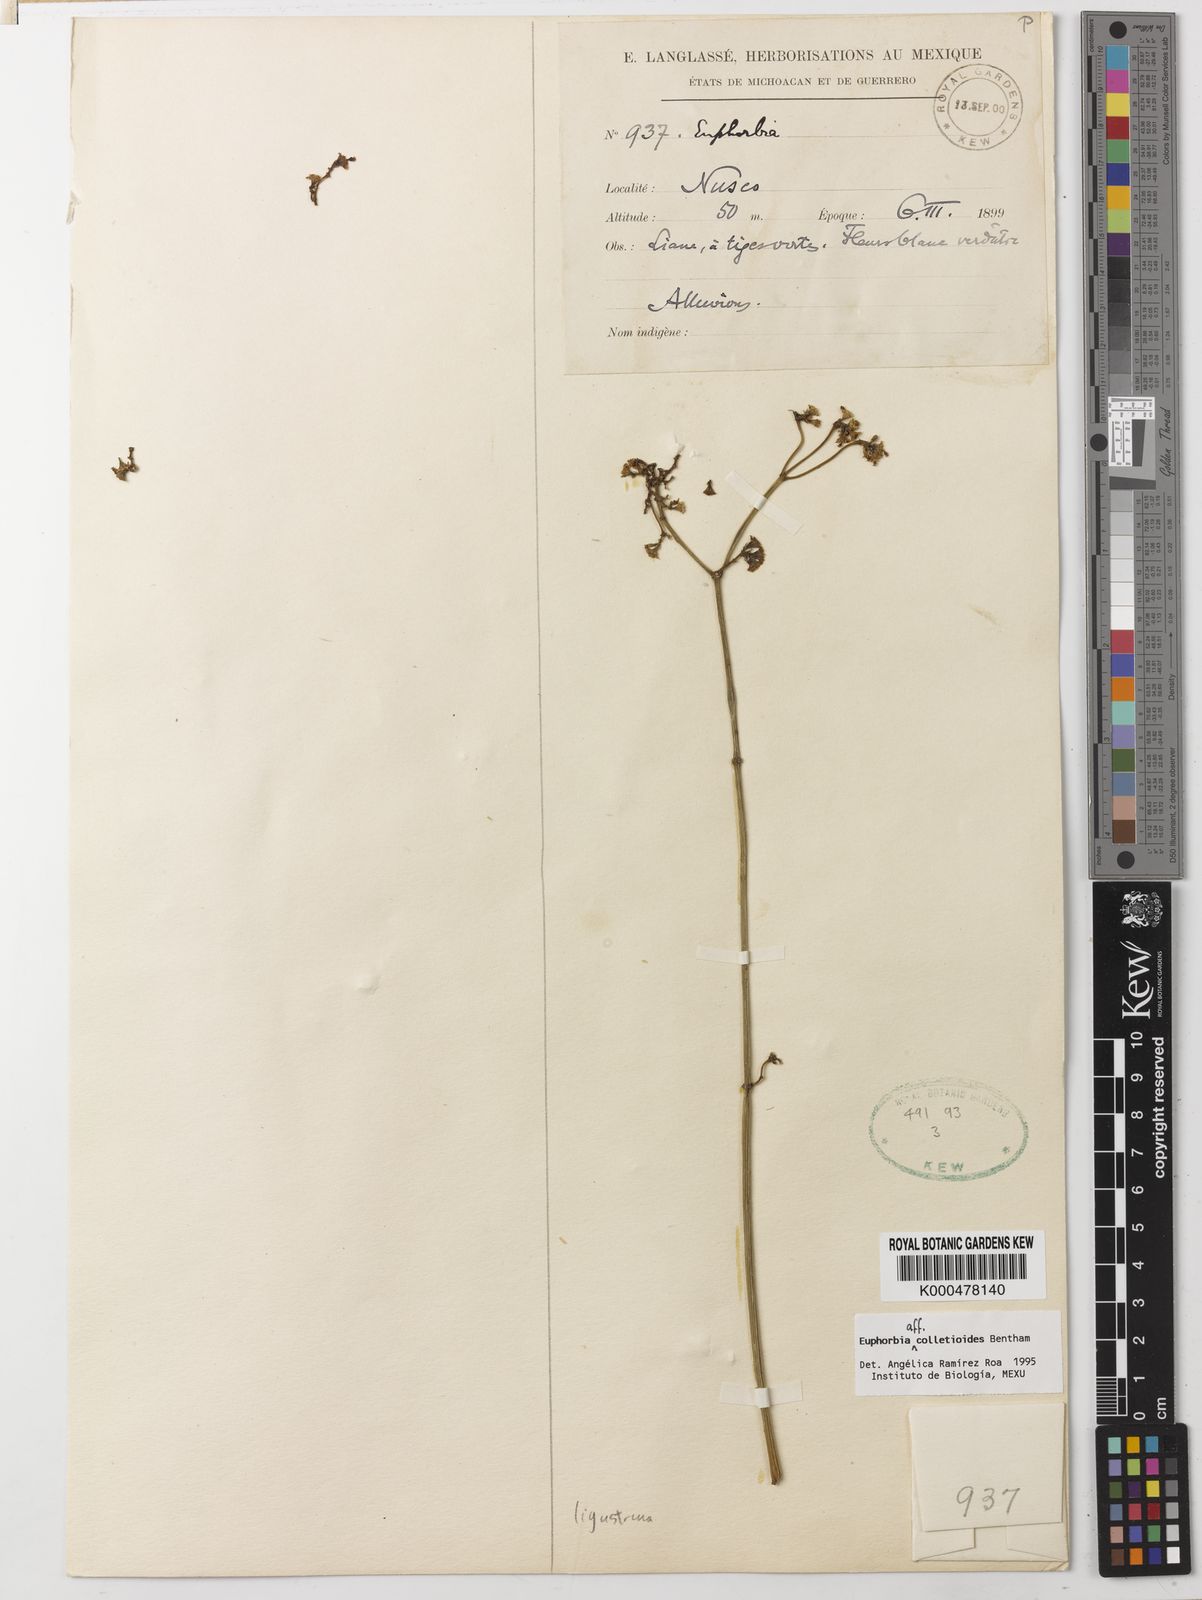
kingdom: Plantae
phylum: Tracheophyta
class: Magnoliopsida
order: Malpighiales
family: Euphorbiaceae
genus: Euphorbia
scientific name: Euphorbia colletioides
